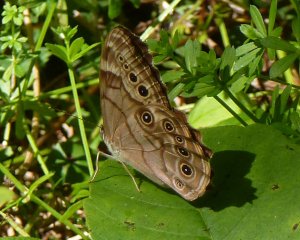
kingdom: Animalia
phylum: Arthropoda
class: Insecta
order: Lepidoptera
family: Nymphalidae
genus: Lethe
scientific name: Lethe anthedon
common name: Northern Pearly-Eye
